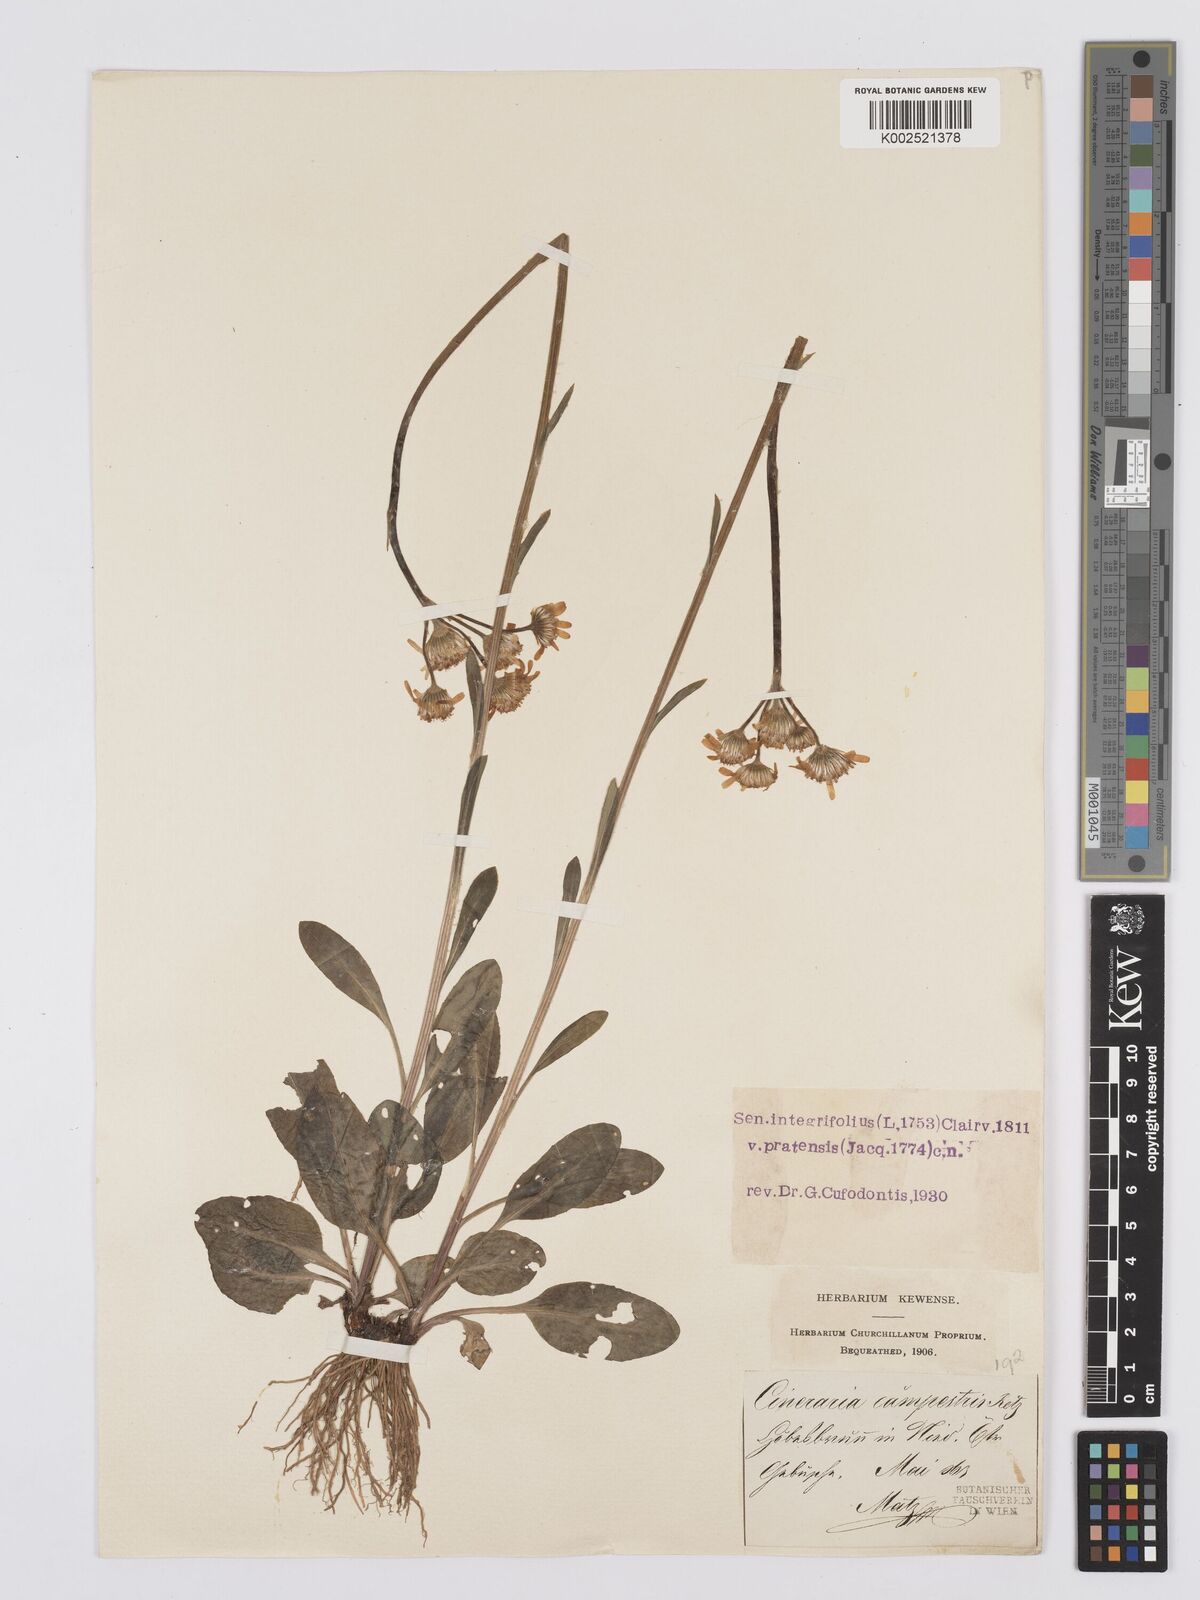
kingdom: Plantae
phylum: Tracheophyta
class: Magnoliopsida
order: Asterales
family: Asteraceae
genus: Tephroseris
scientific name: Tephroseris helenitis
